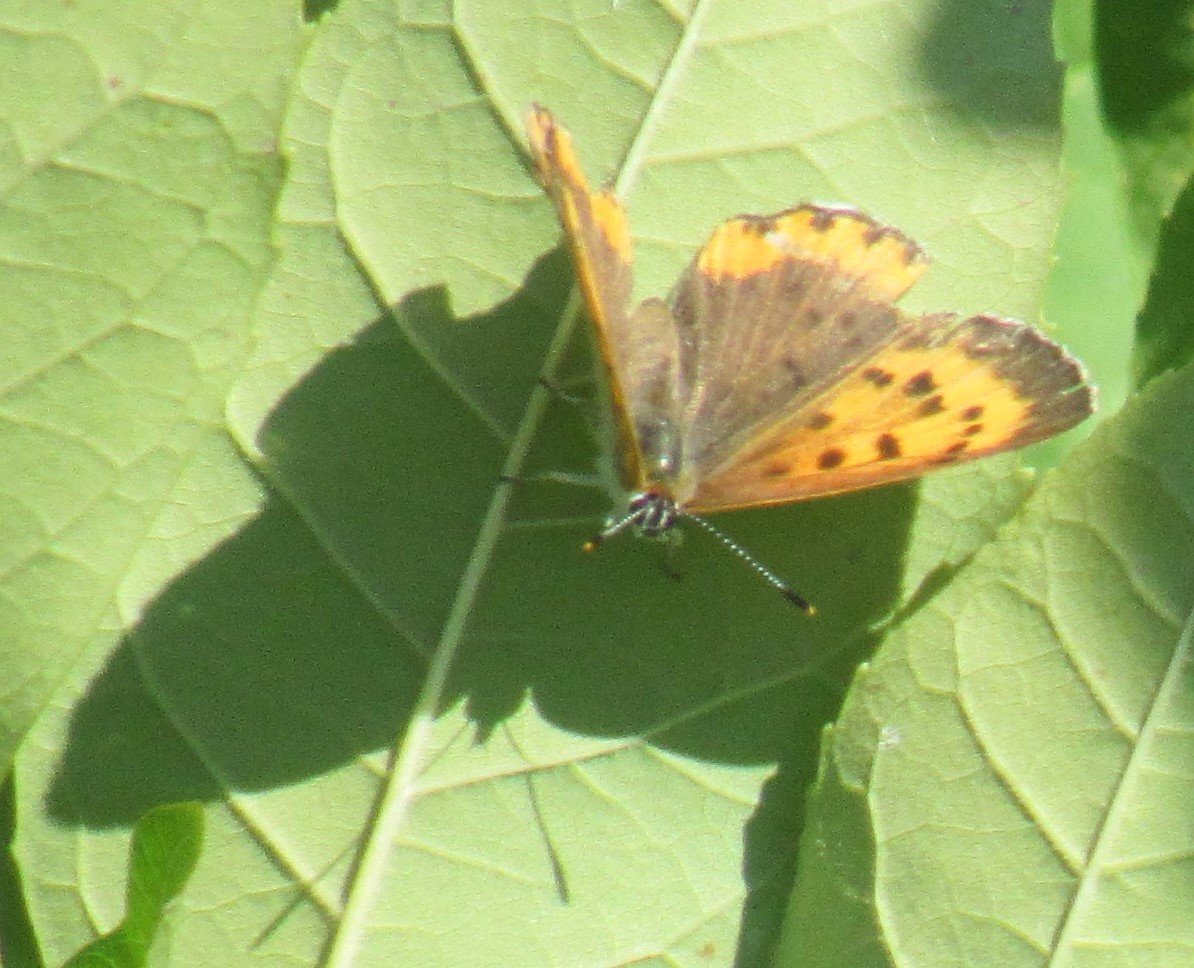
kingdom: Animalia
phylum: Arthropoda
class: Insecta
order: Lepidoptera
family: Sesiidae
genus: Sesia
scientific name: Sesia Lycaena hyllus
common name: Bronze Copper
